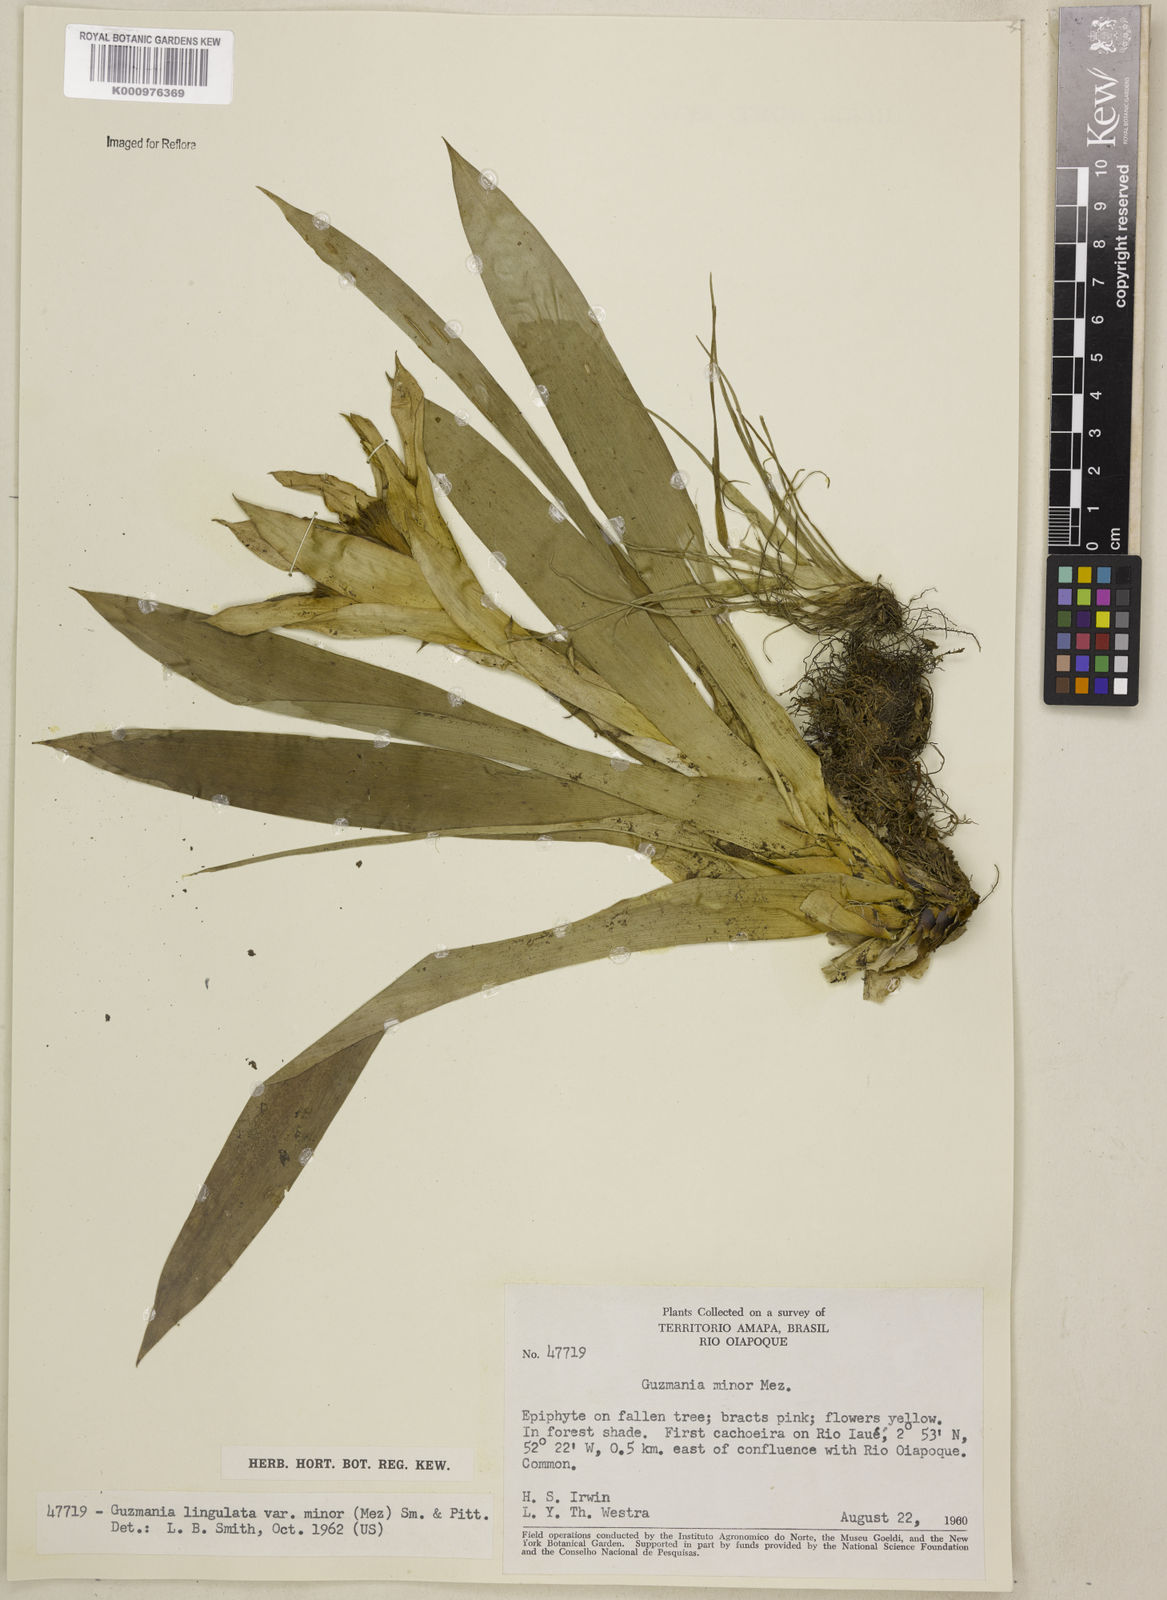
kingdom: Plantae
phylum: Tracheophyta
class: Liliopsida
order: Poales
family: Bromeliaceae
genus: Guzmania
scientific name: Guzmania lingulata
